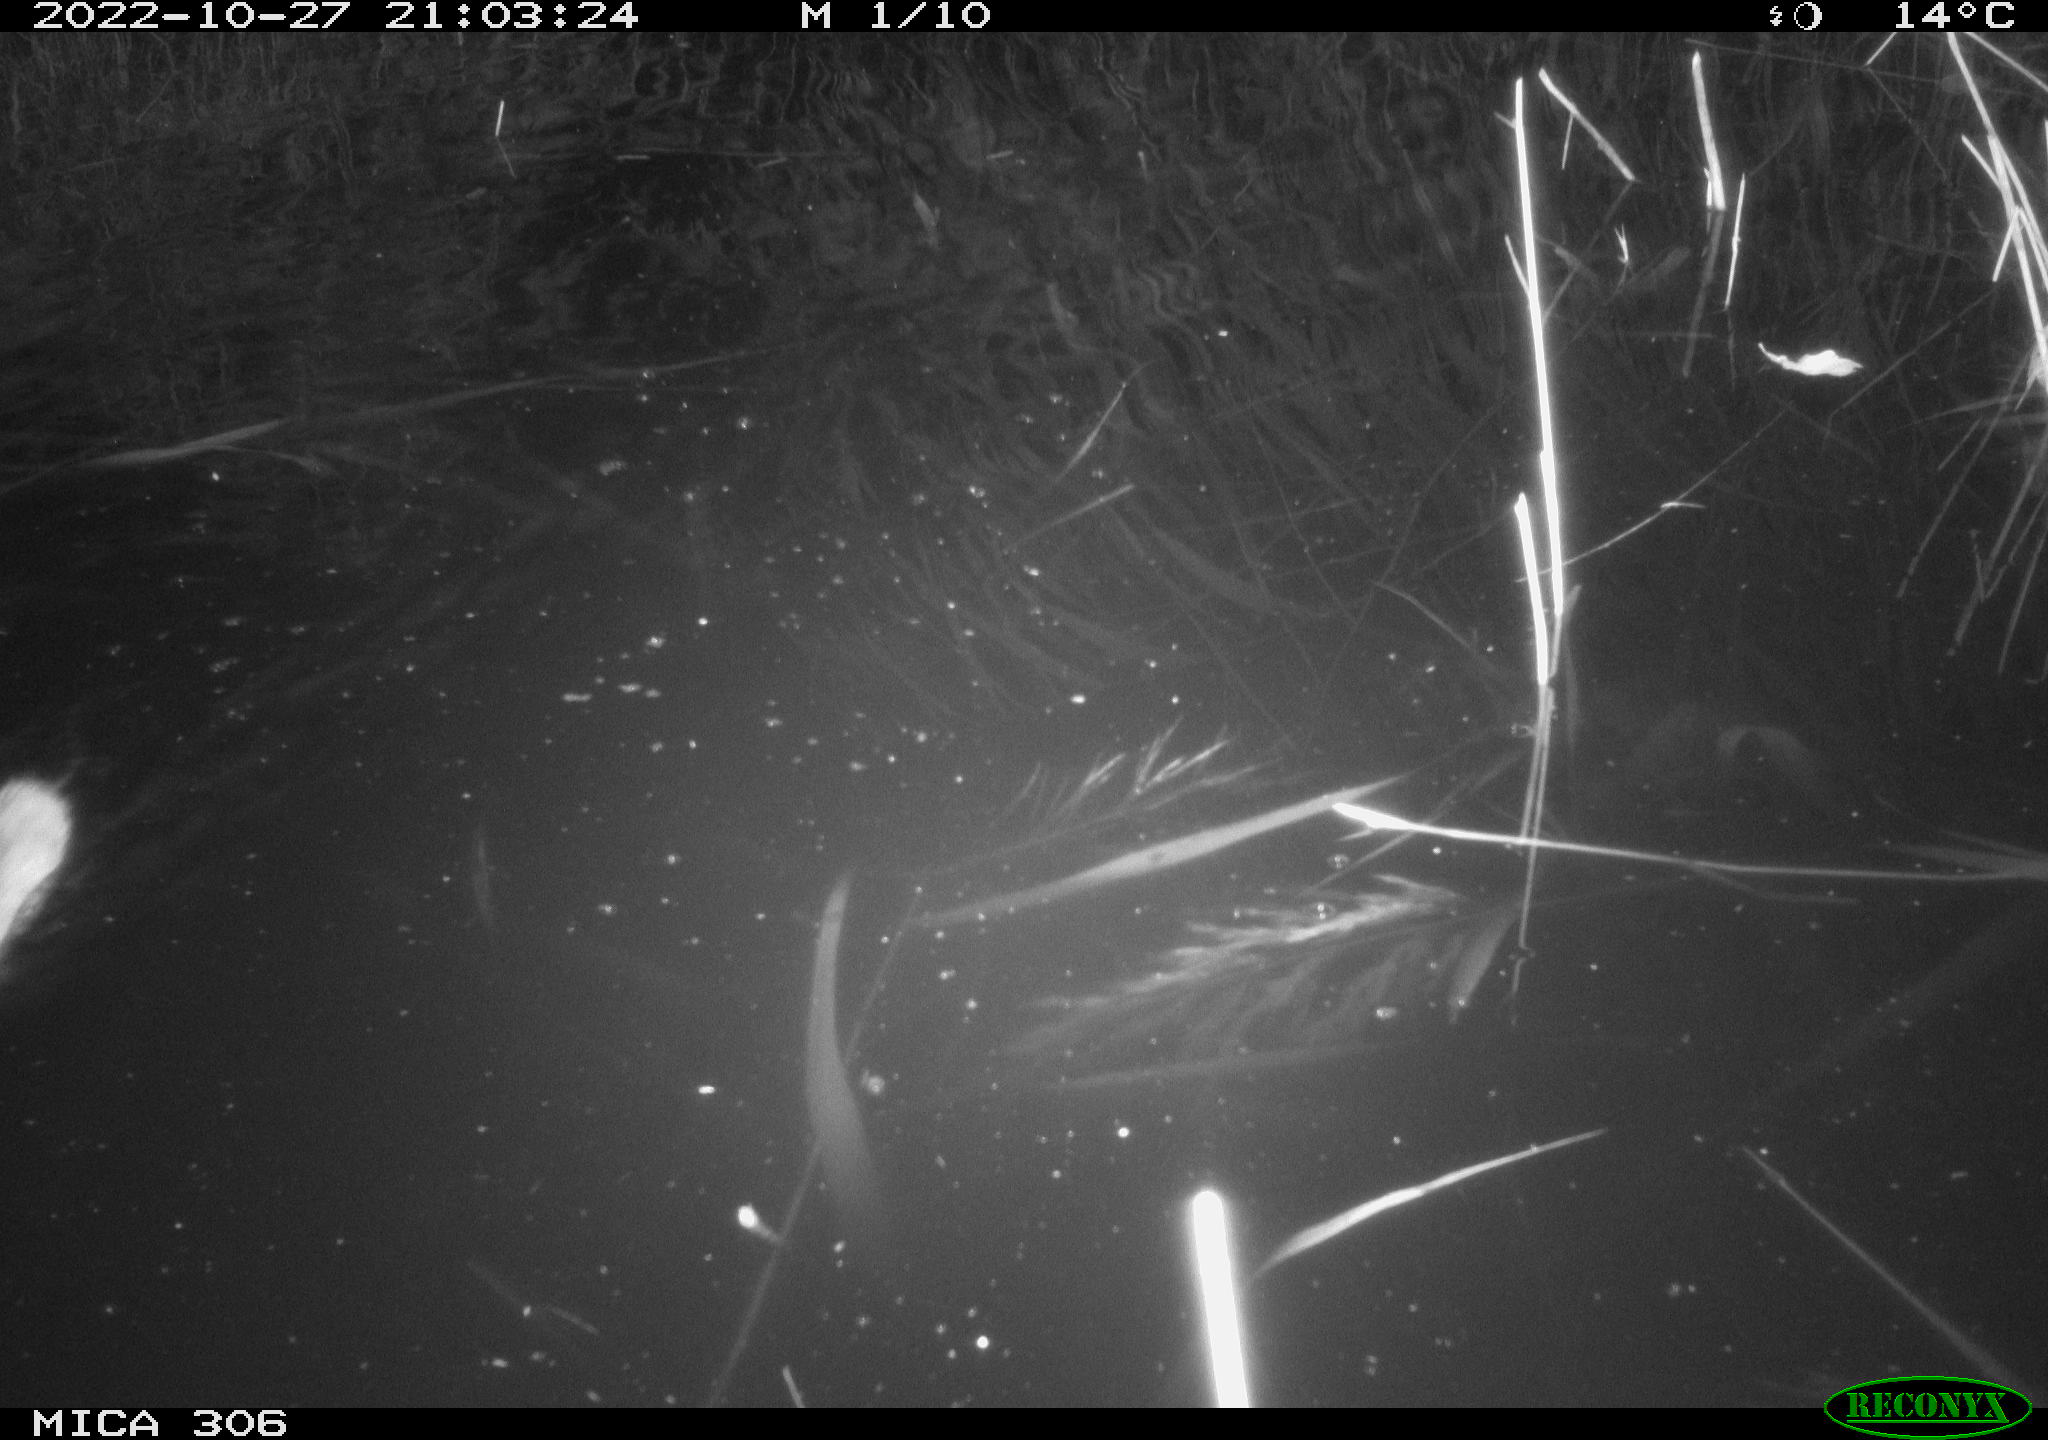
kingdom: Animalia
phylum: Chordata
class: Mammalia
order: Rodentia
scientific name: Rodentia
